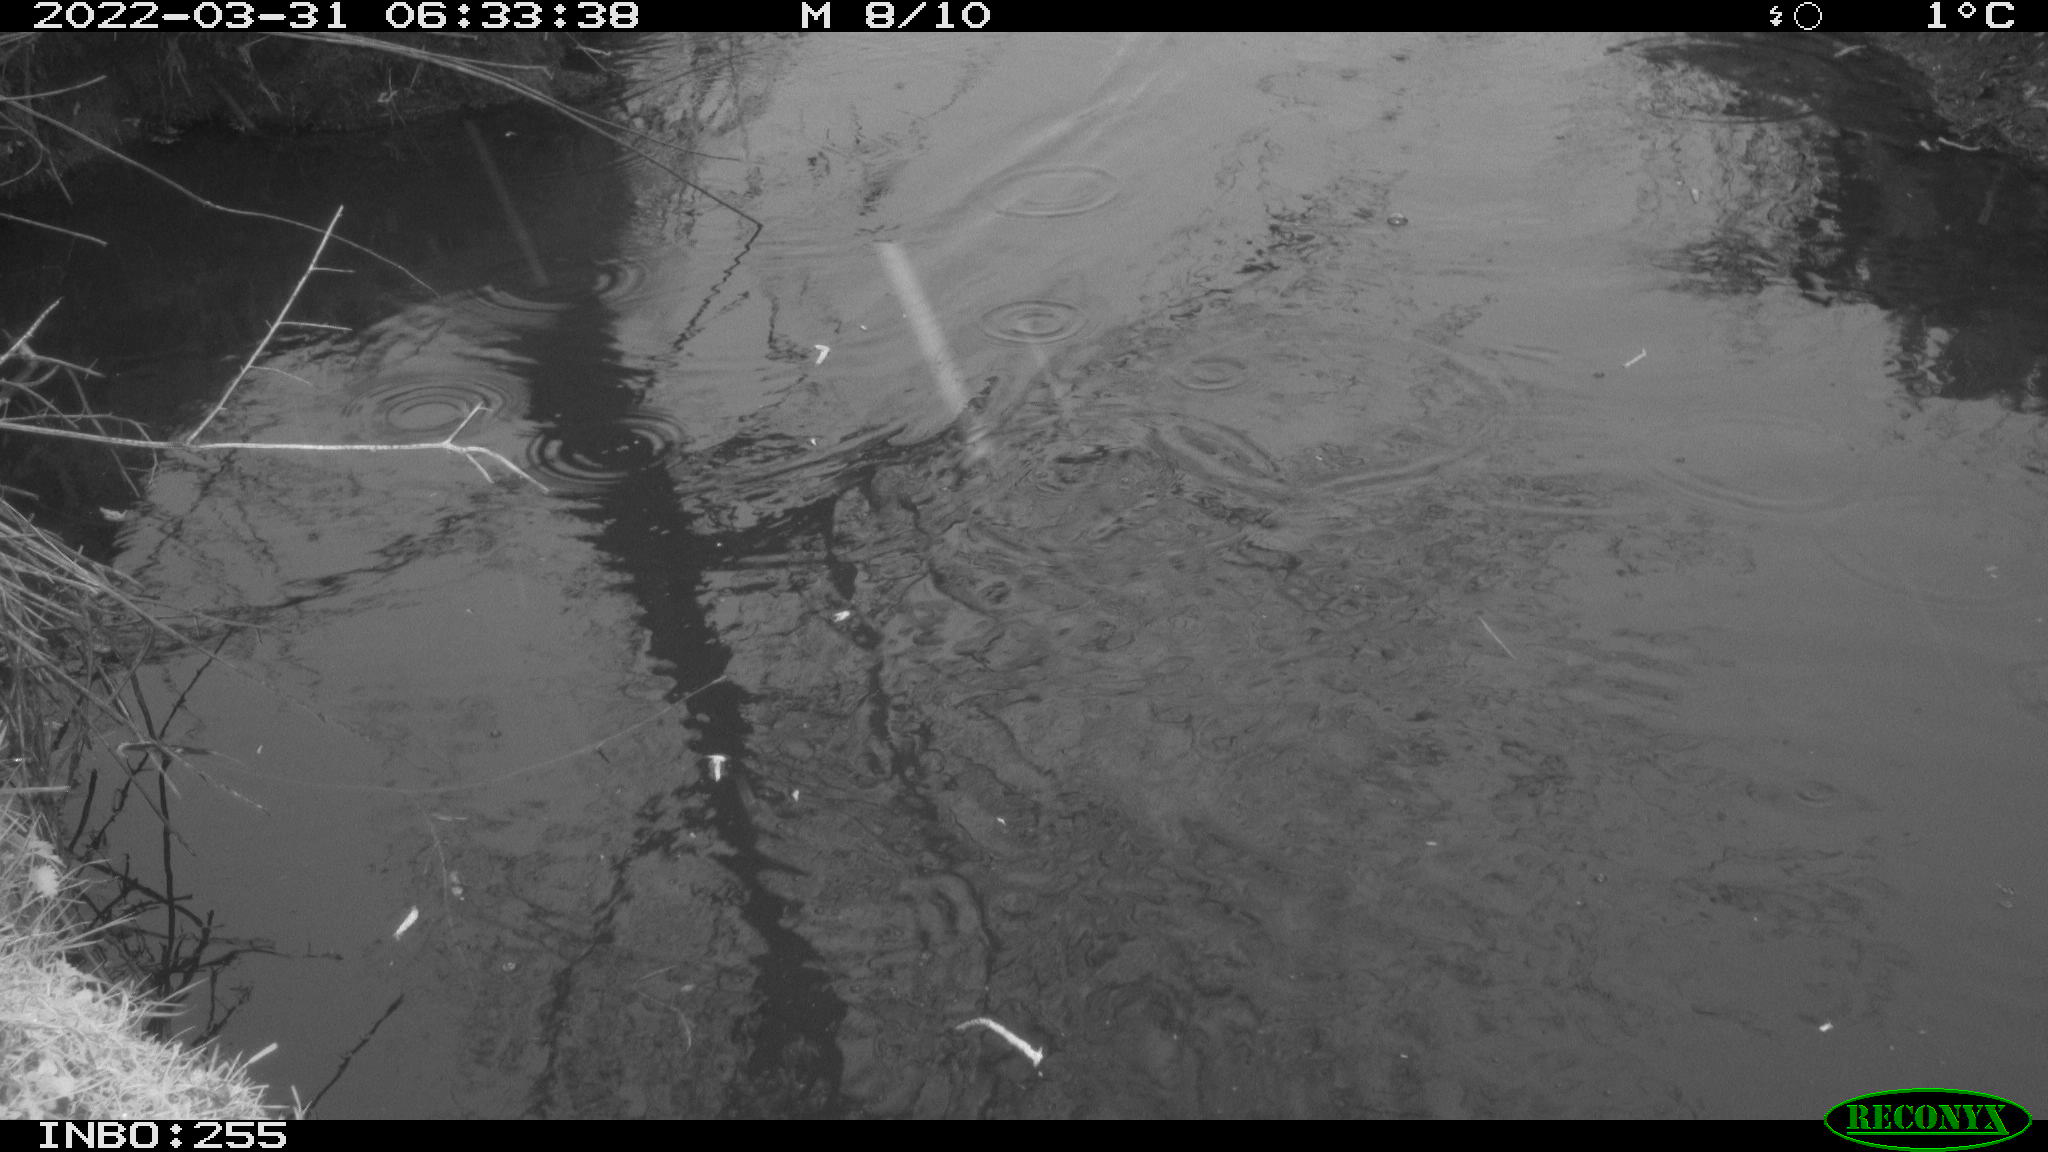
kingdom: Animalia
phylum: Chordata
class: Aves
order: Anseriformes
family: Anatidae
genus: Anas
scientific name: Anas platyrhynchos
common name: Mallard
